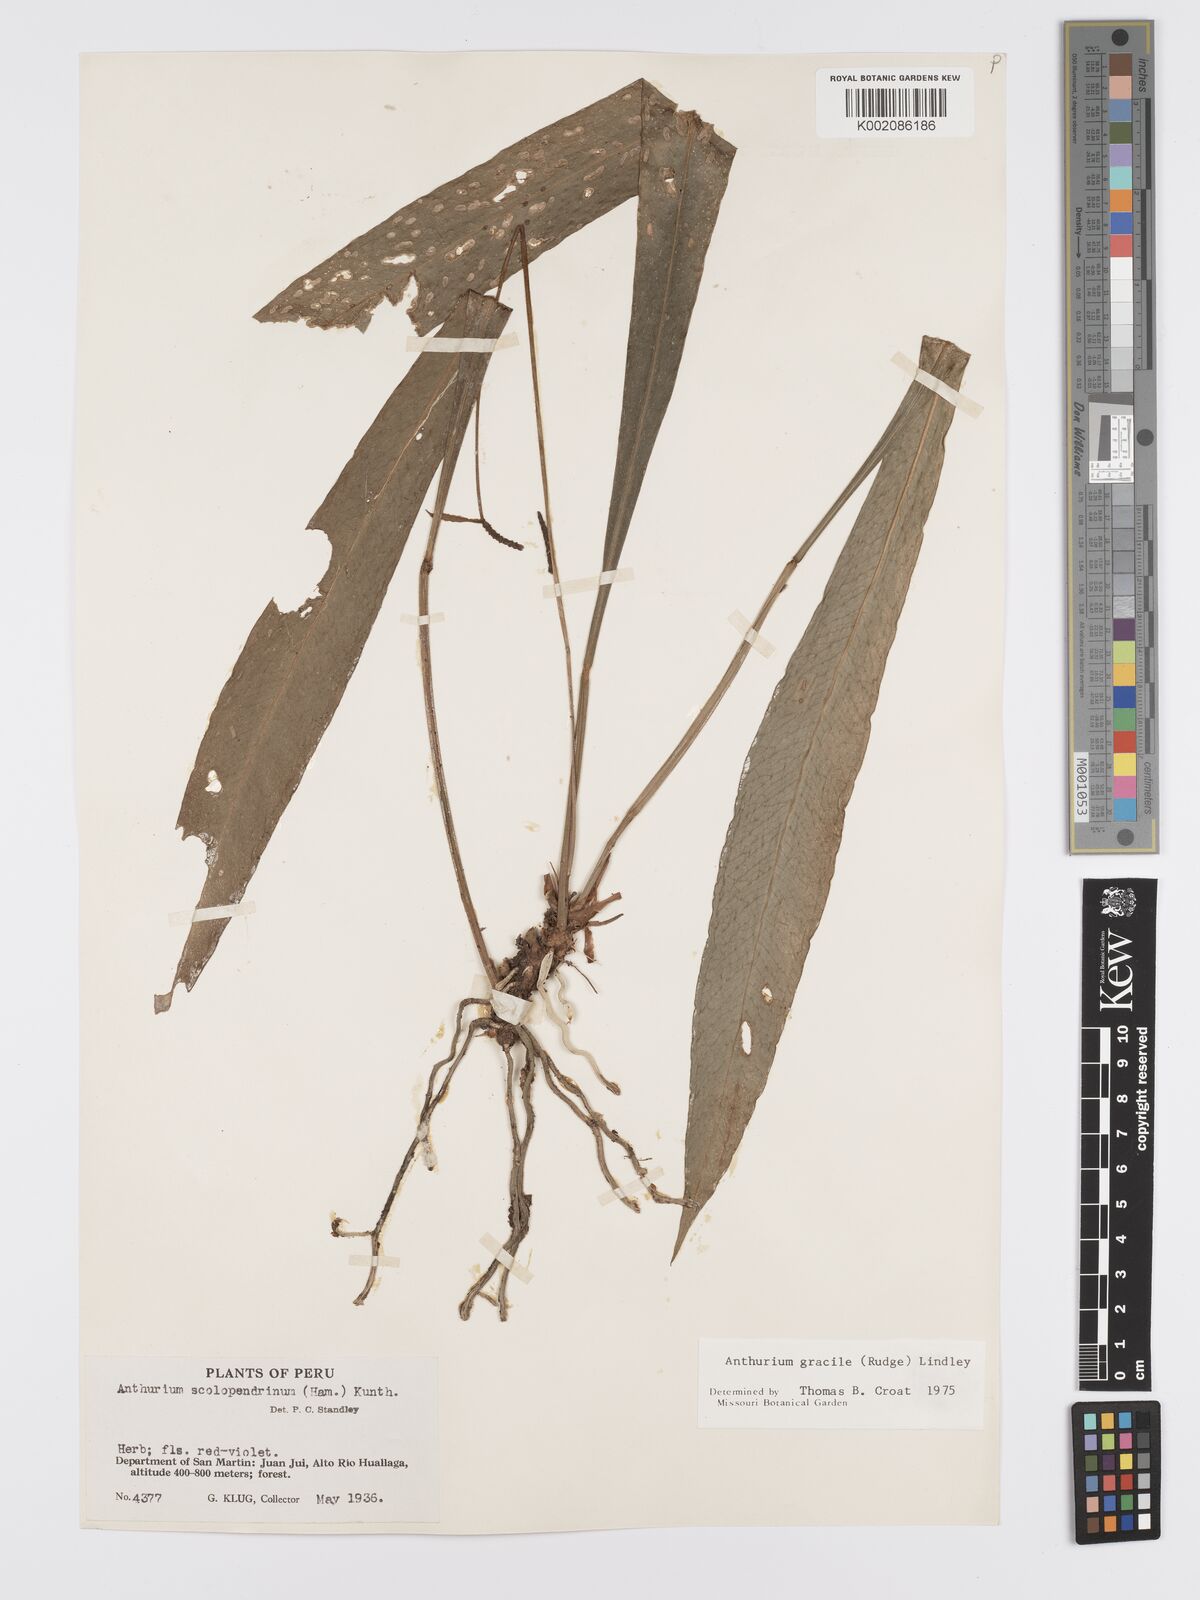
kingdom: Plantae
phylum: Tracheophyta
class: Liliopsida
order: Alismatales
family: Araceae
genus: Anthurium
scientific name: Anthurium gracile
